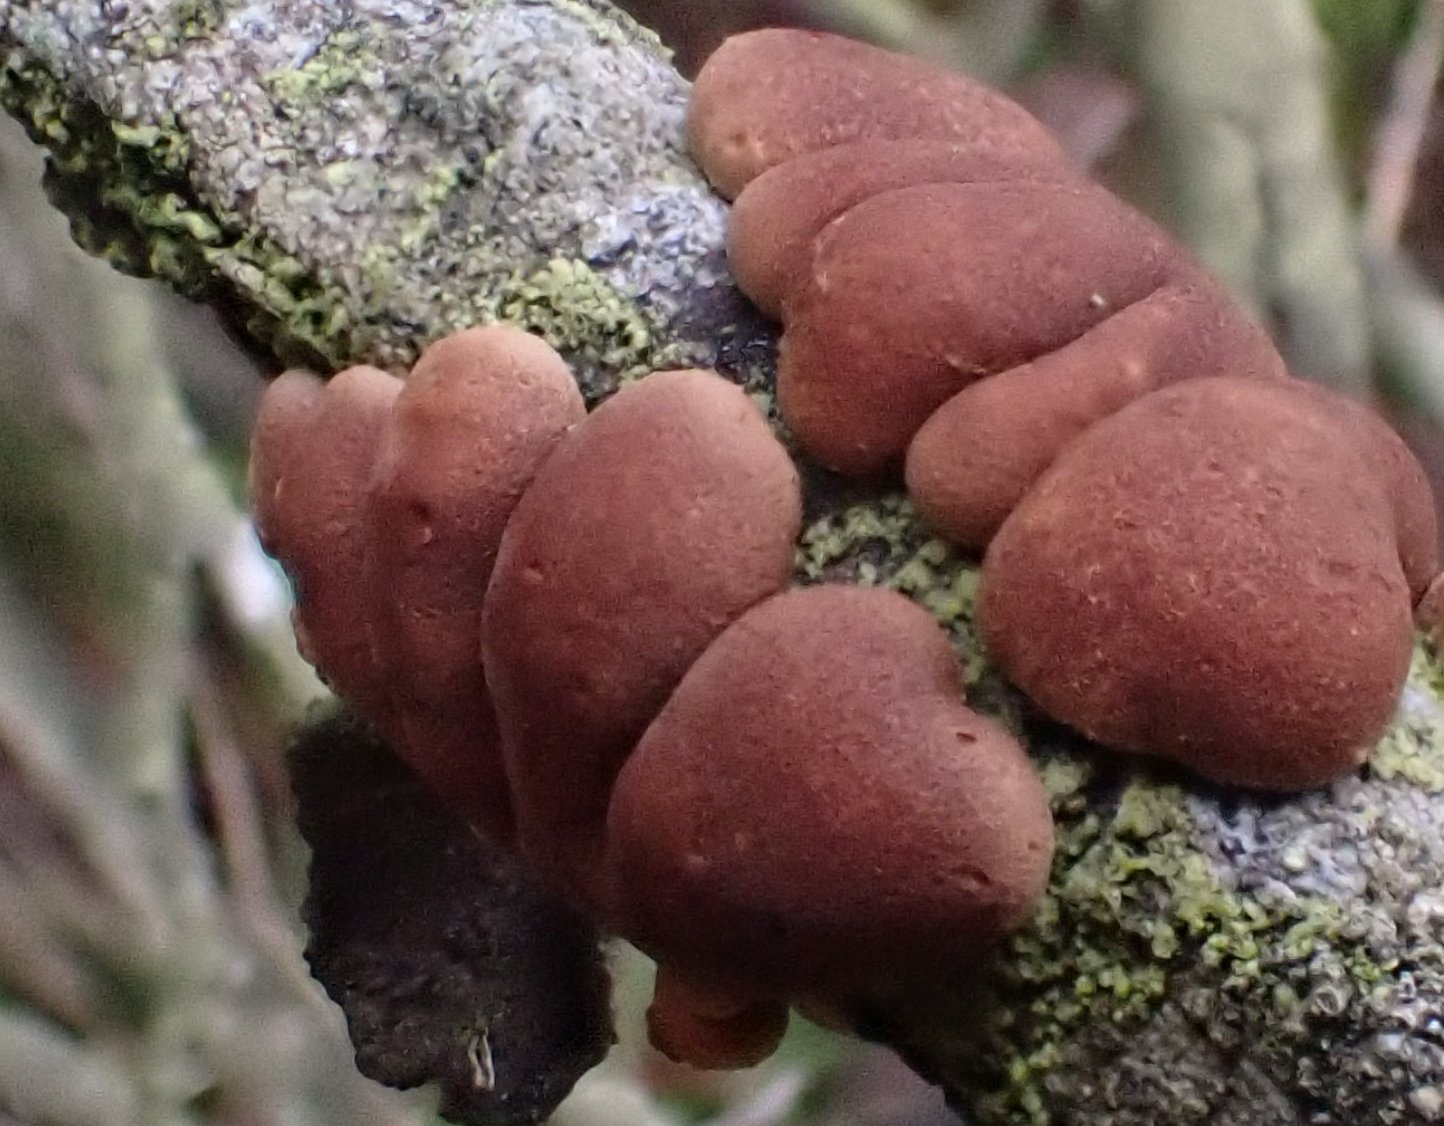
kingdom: Fungi
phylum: Ascomycota
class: Sordariomycetes
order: Hypocreales
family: Hypocreaceae
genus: Hypocreopsis
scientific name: Hypocreopsis lichenoides
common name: pilfinger
